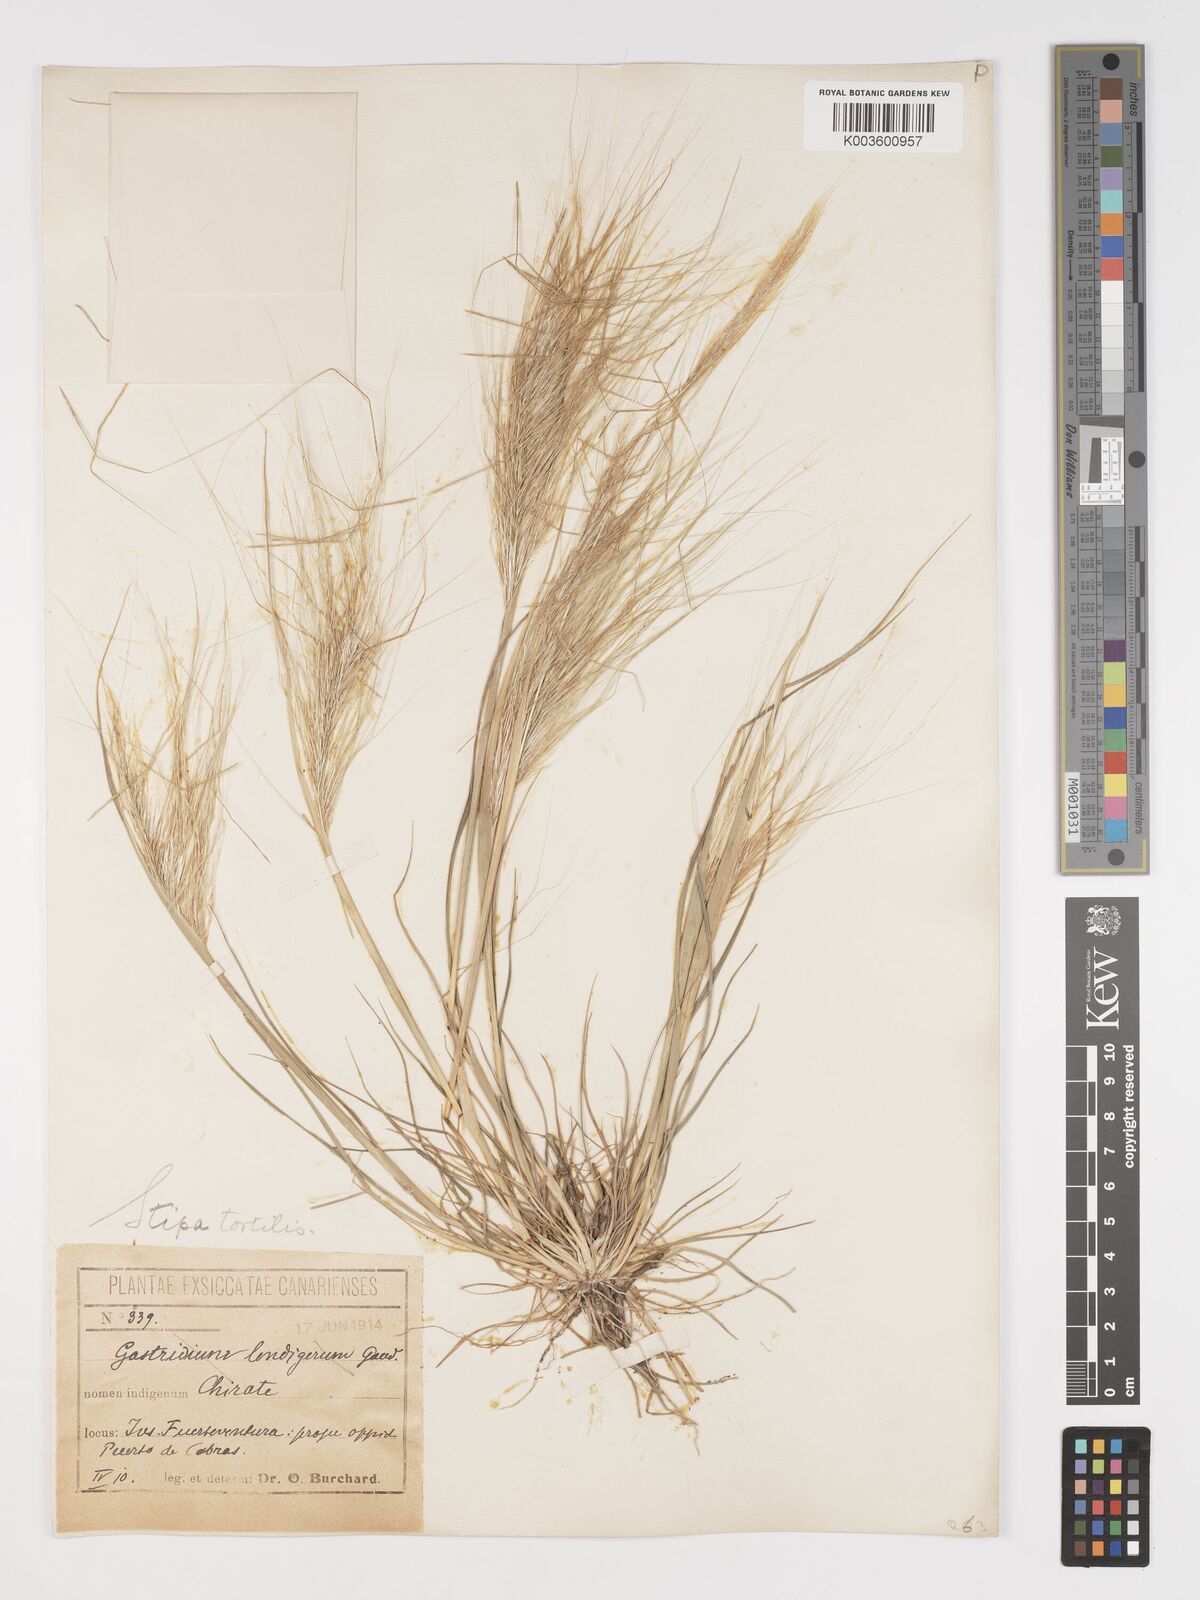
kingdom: Plantae
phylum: Tracheophyta
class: Liliopsida
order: Poales
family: Poaceae
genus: Stipellula
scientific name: Stipellula capensis
